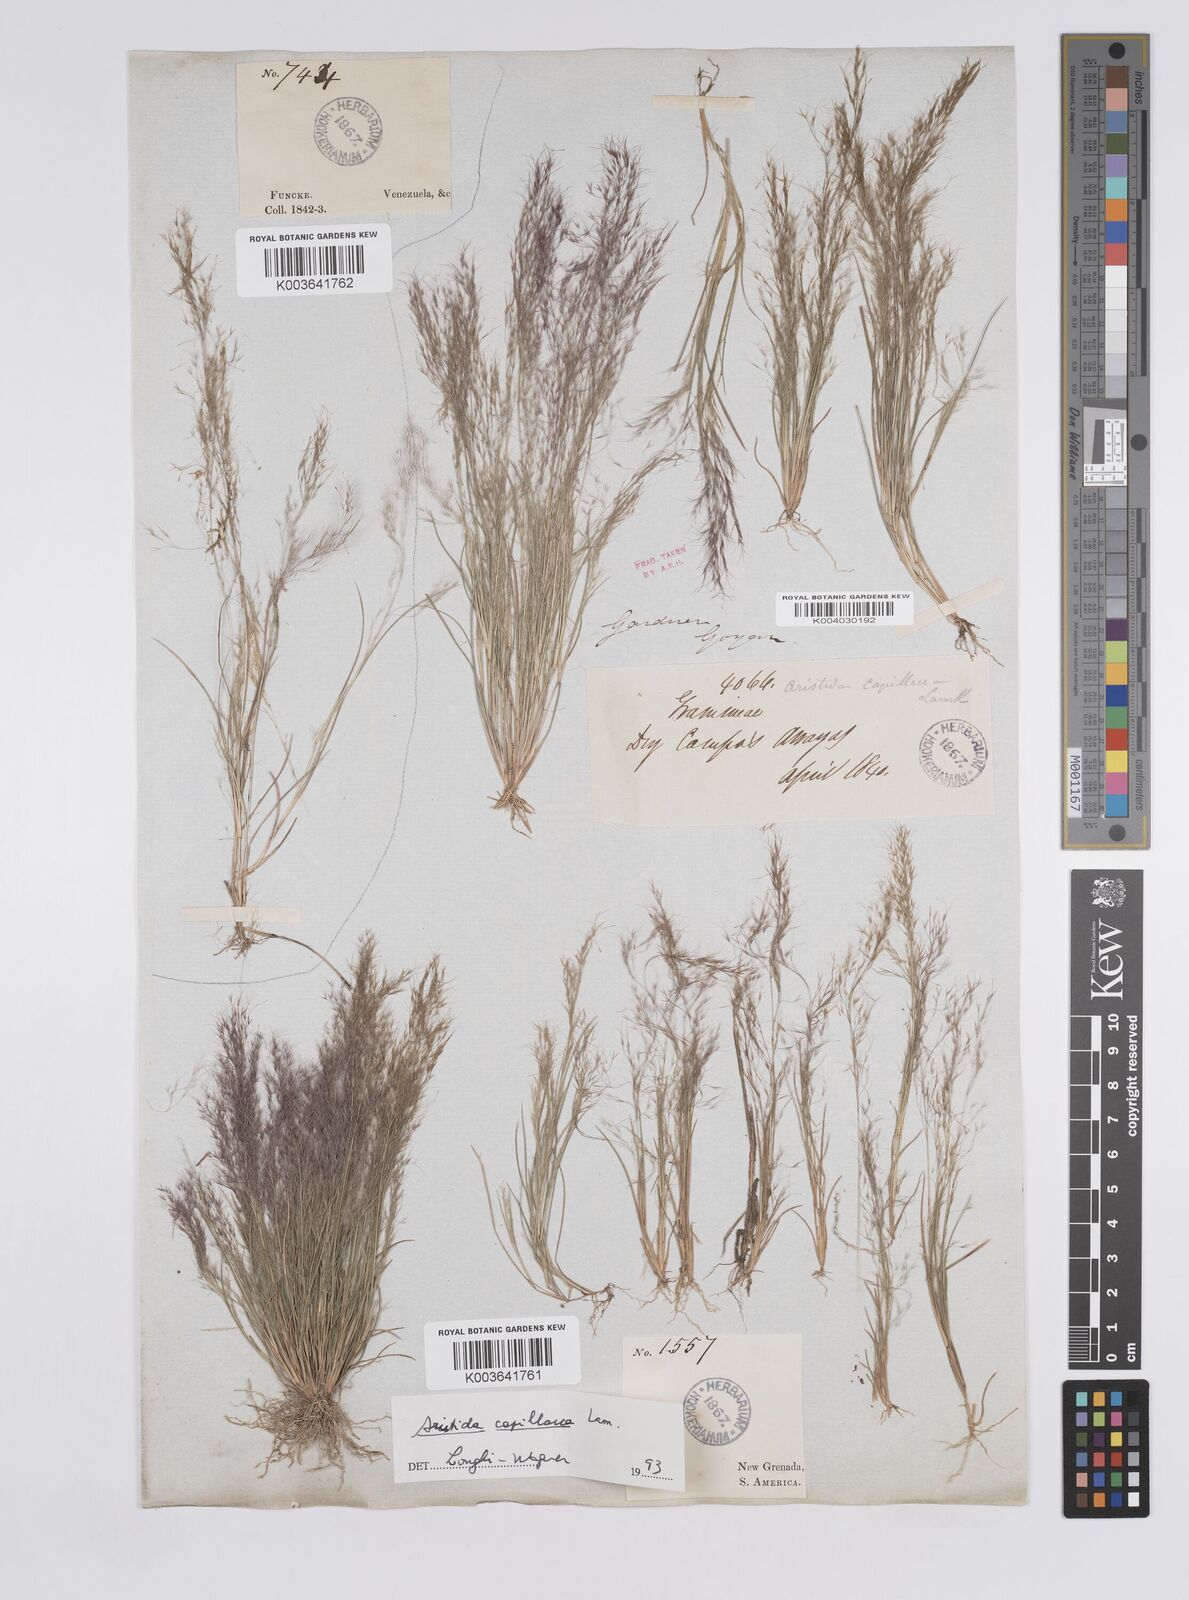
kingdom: Plantae
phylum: Tracheophyta
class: Liliopsida
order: Poales
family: Poaceae
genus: Aristida
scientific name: Aristida capillacea
